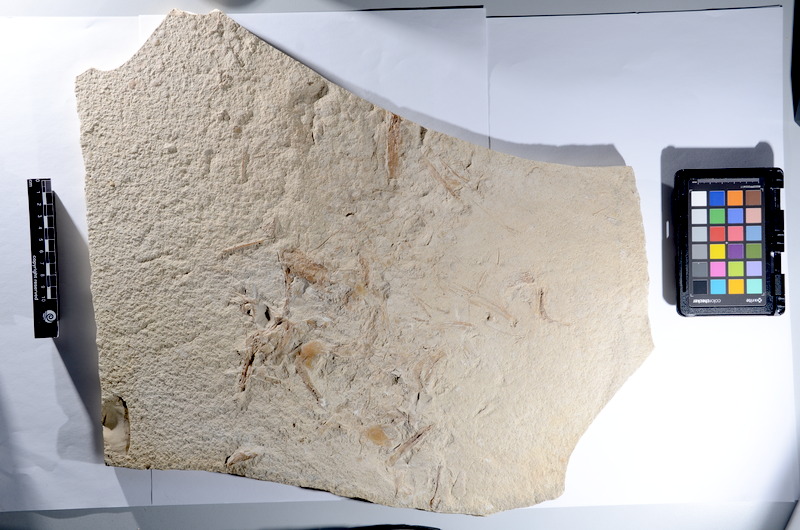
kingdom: Animalia
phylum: Chordata
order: Amiiformes
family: Caturidae
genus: Caturus
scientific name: Caturus furcatus
